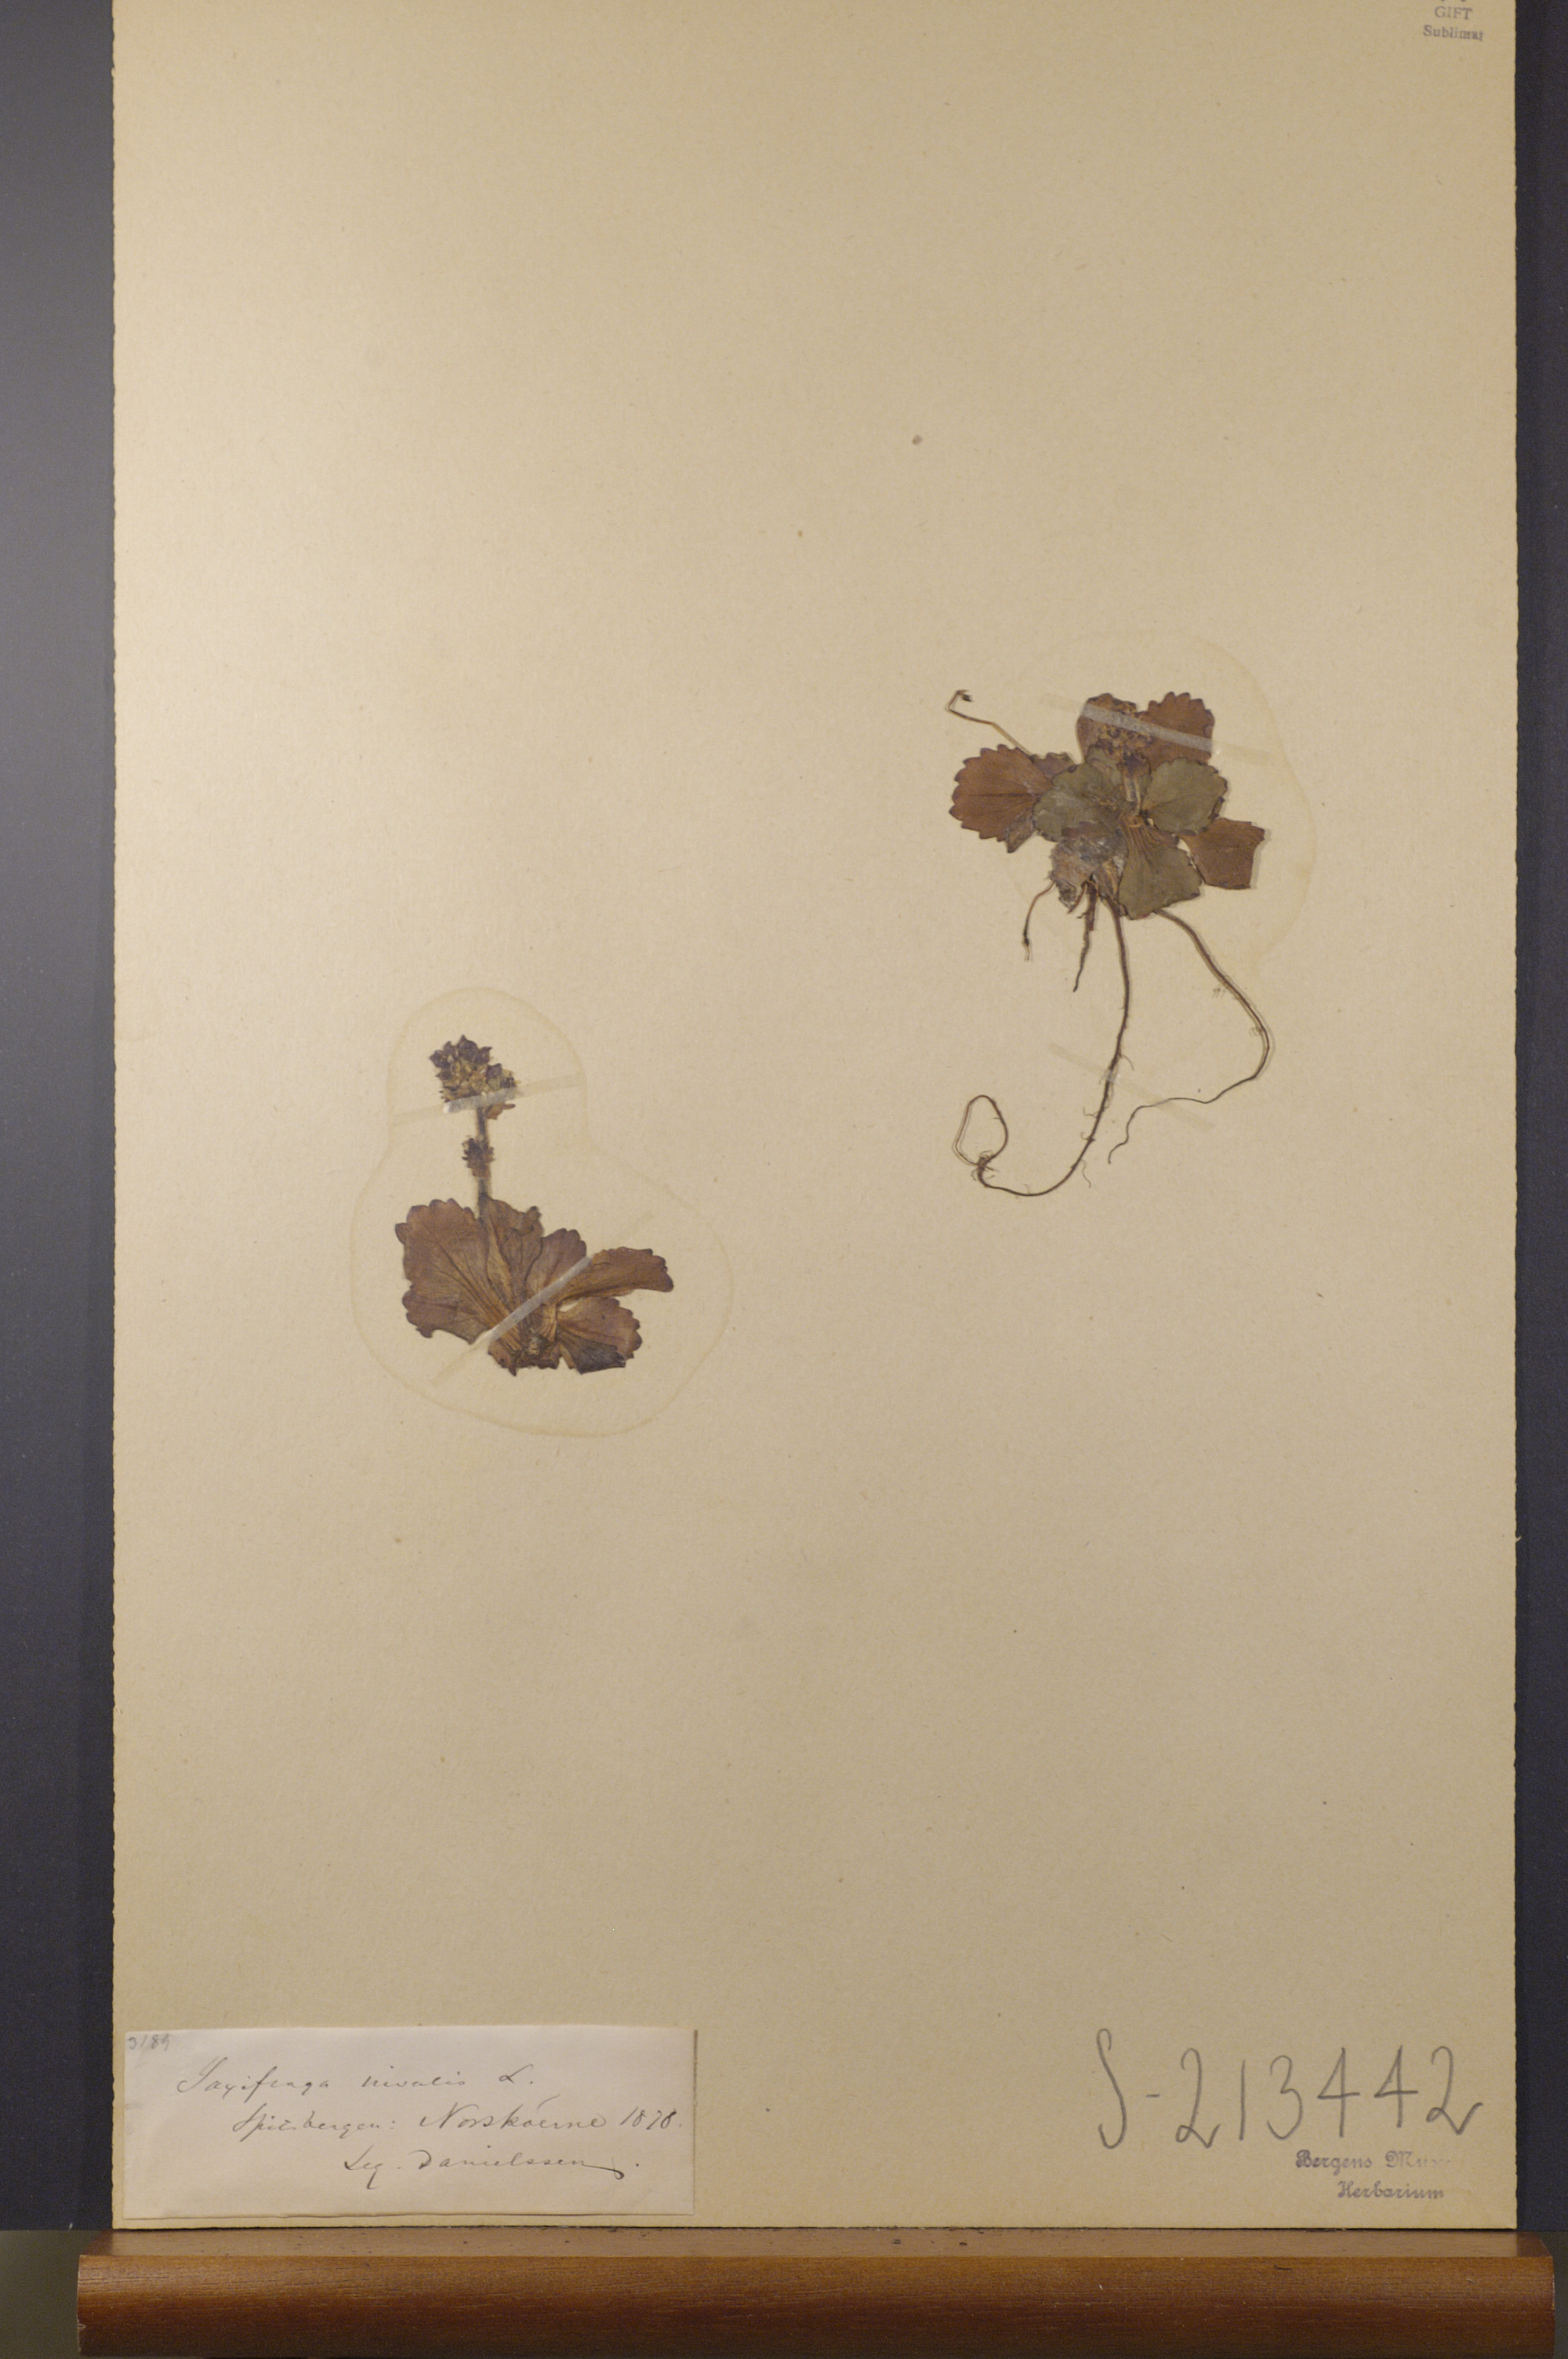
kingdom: Plantae
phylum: Tracheophyta
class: Magnoliopsida
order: Saxifragales
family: Saxifragaceae
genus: Micranthes
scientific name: Micranthes nivalis
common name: Alpine saxifrage
